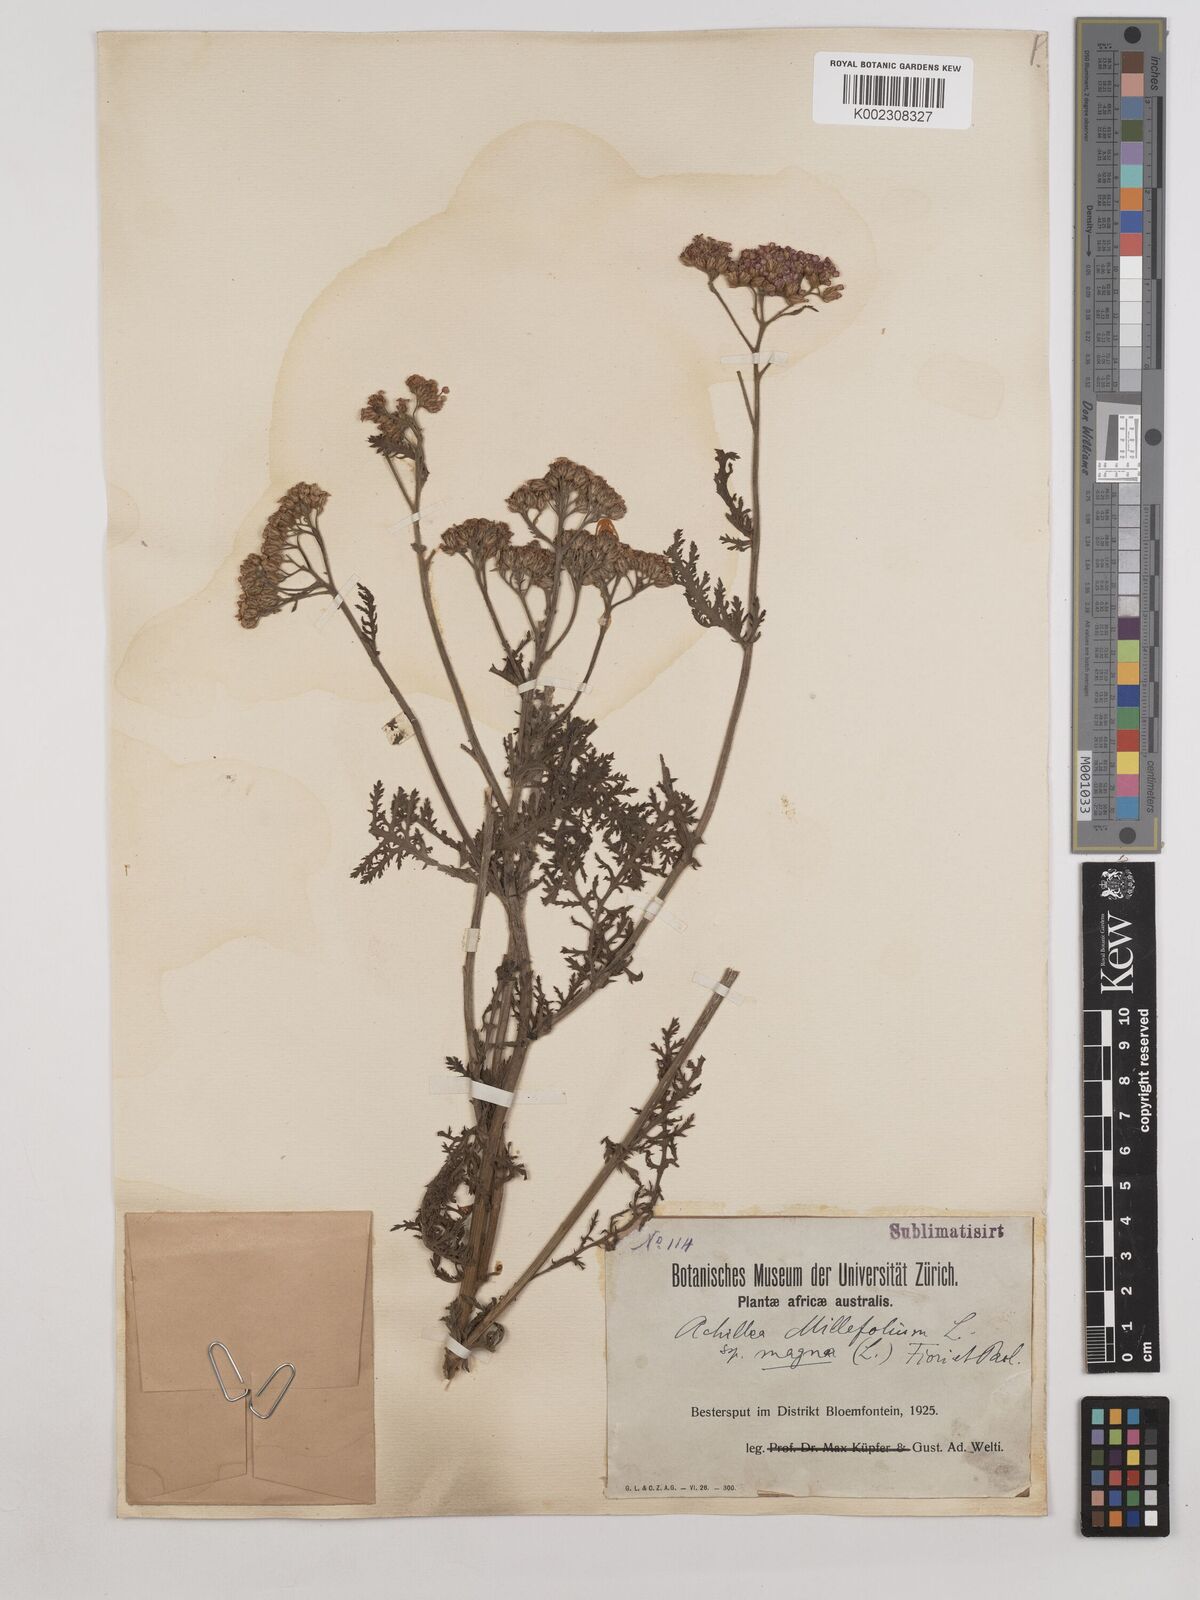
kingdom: Plantae
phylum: Tracheophyta
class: Magnoliopsida
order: Asterales
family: Asteraceae
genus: Achillea
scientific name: Achillea millefolium
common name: Yarrow
